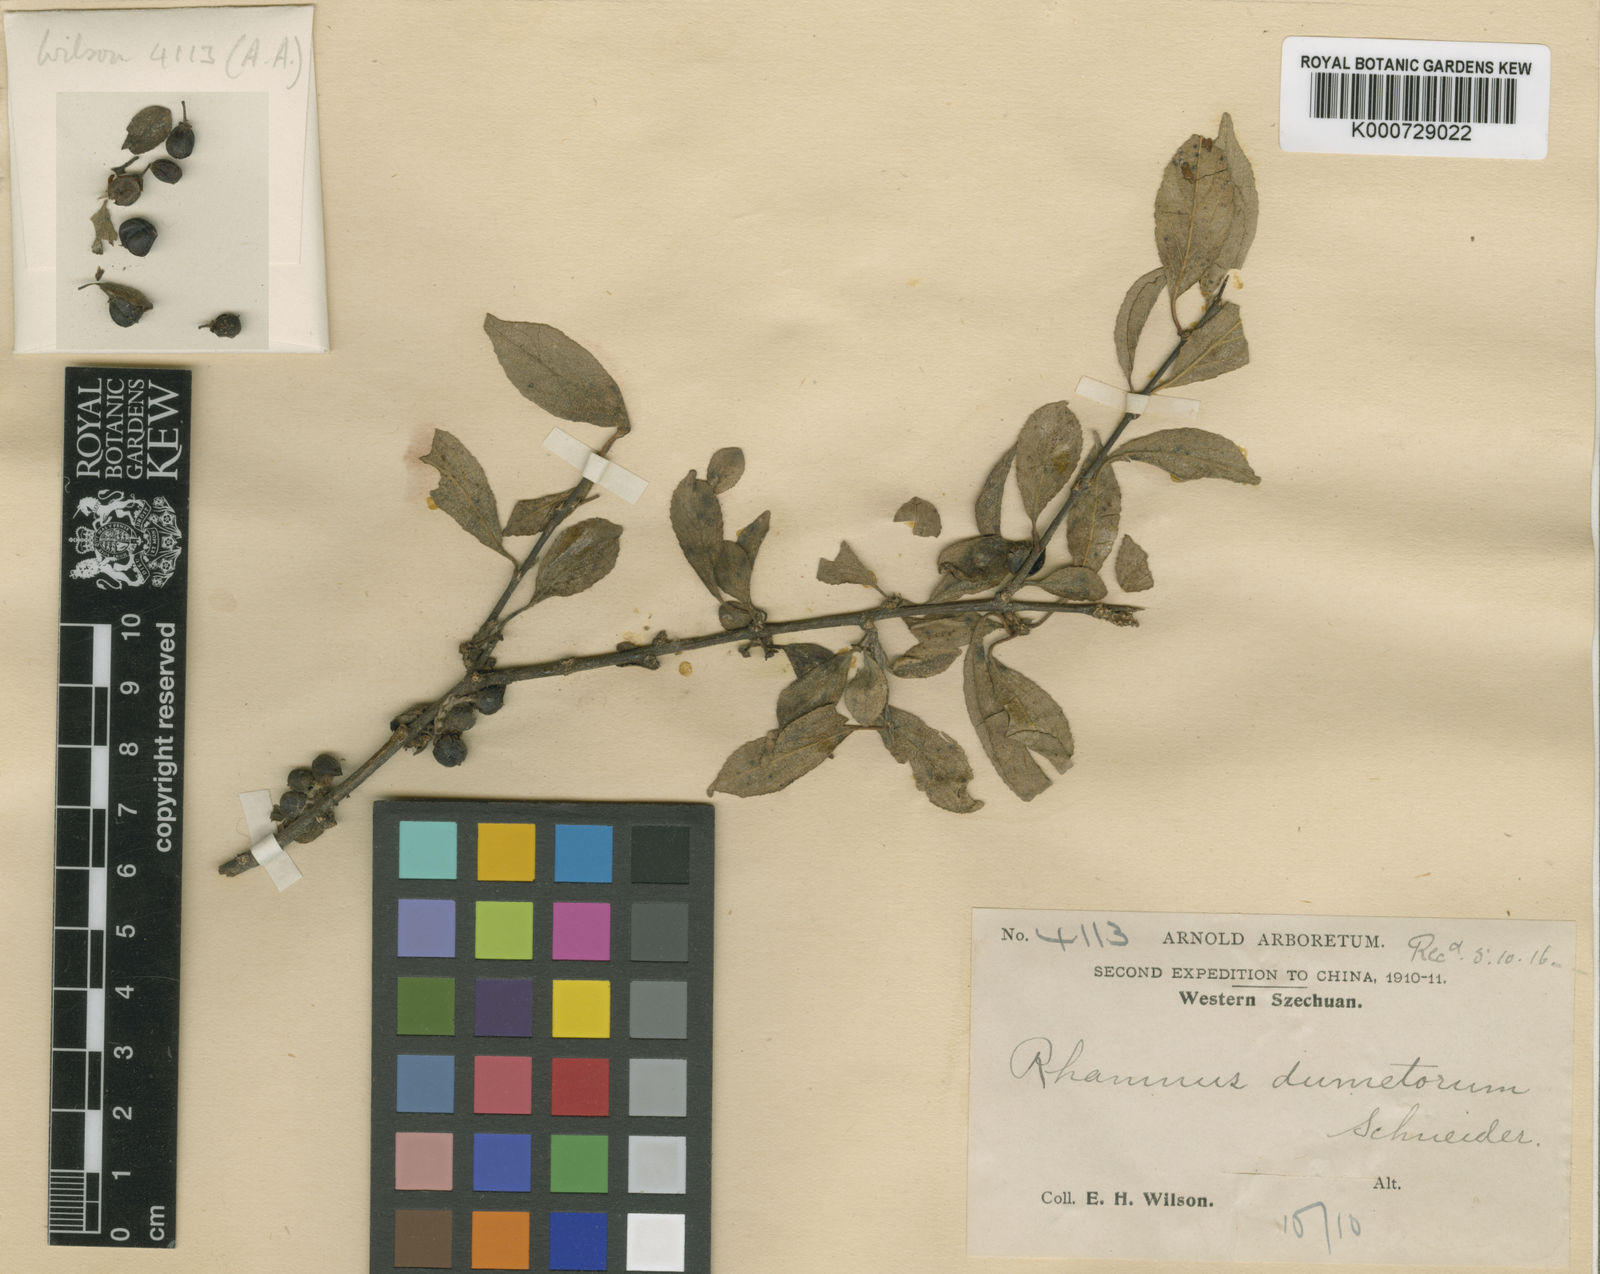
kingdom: Plantae
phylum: Tracheophyta
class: Magnoliopsida
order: Rosales
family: Rhamnaceae
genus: Rhamnus
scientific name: Rhamnus dumetorum
